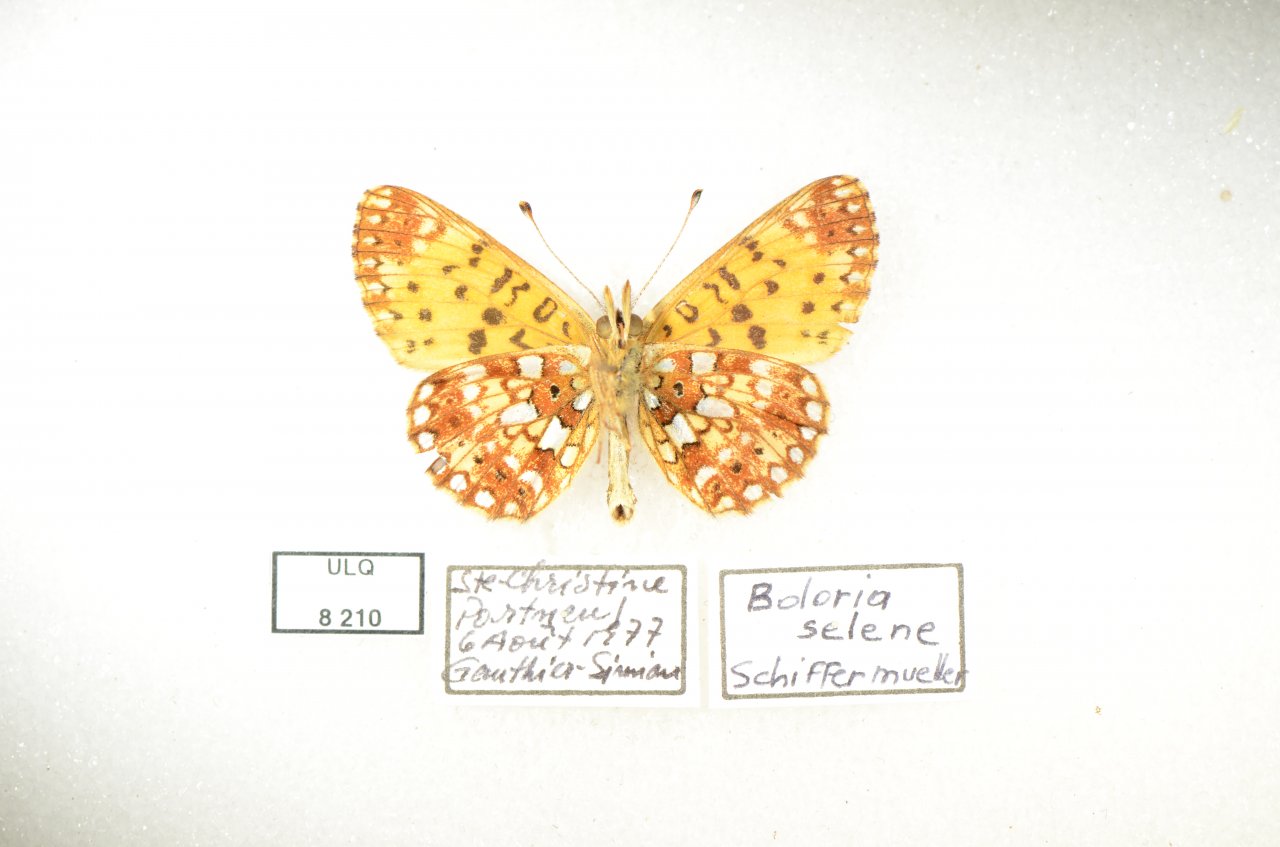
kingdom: Animalia
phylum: Arthropoda
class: Insecta
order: Lepidoptera
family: Nymphalidae
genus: Boloria
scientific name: Boloria selene
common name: Silver-bordered Fritillary
